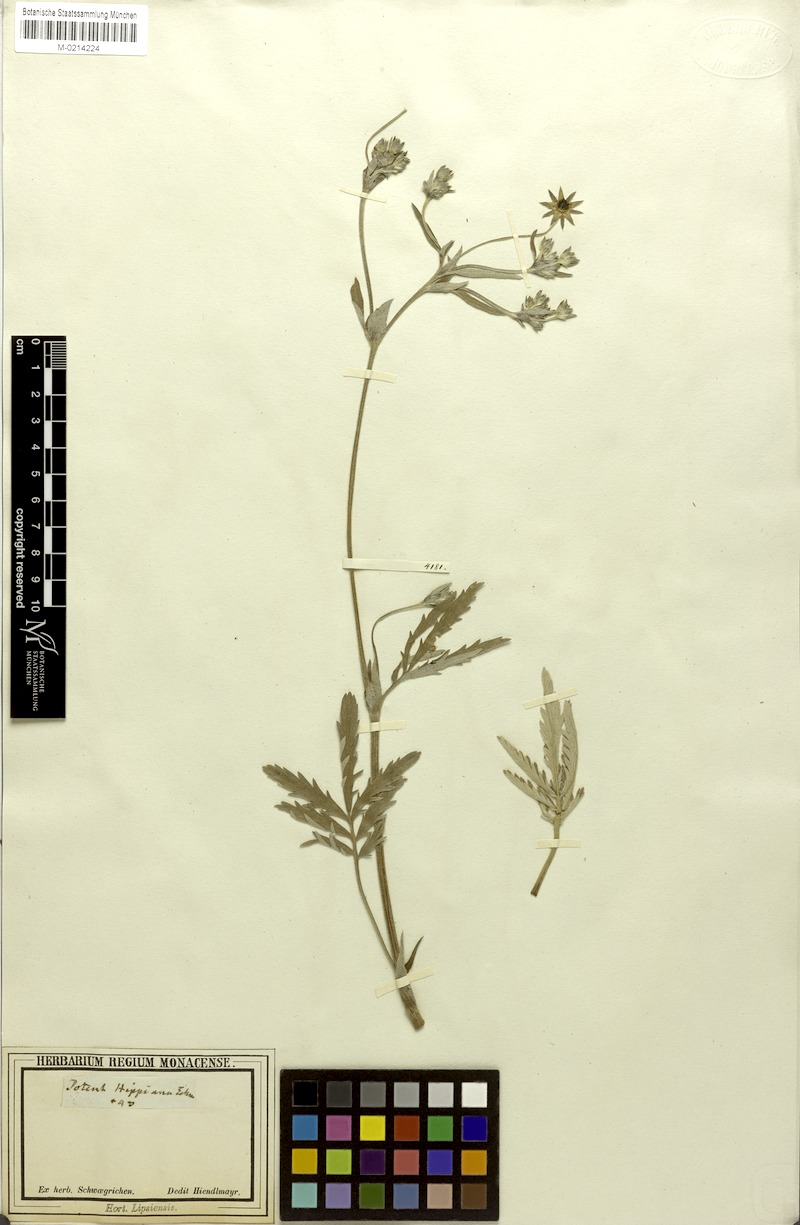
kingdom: Plantae
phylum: Tracheophyta
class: Magnoliopsida
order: Rosales
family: Rosaceae
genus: Potentilla
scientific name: Potentilla hippiana
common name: Woolly cinquefoil
